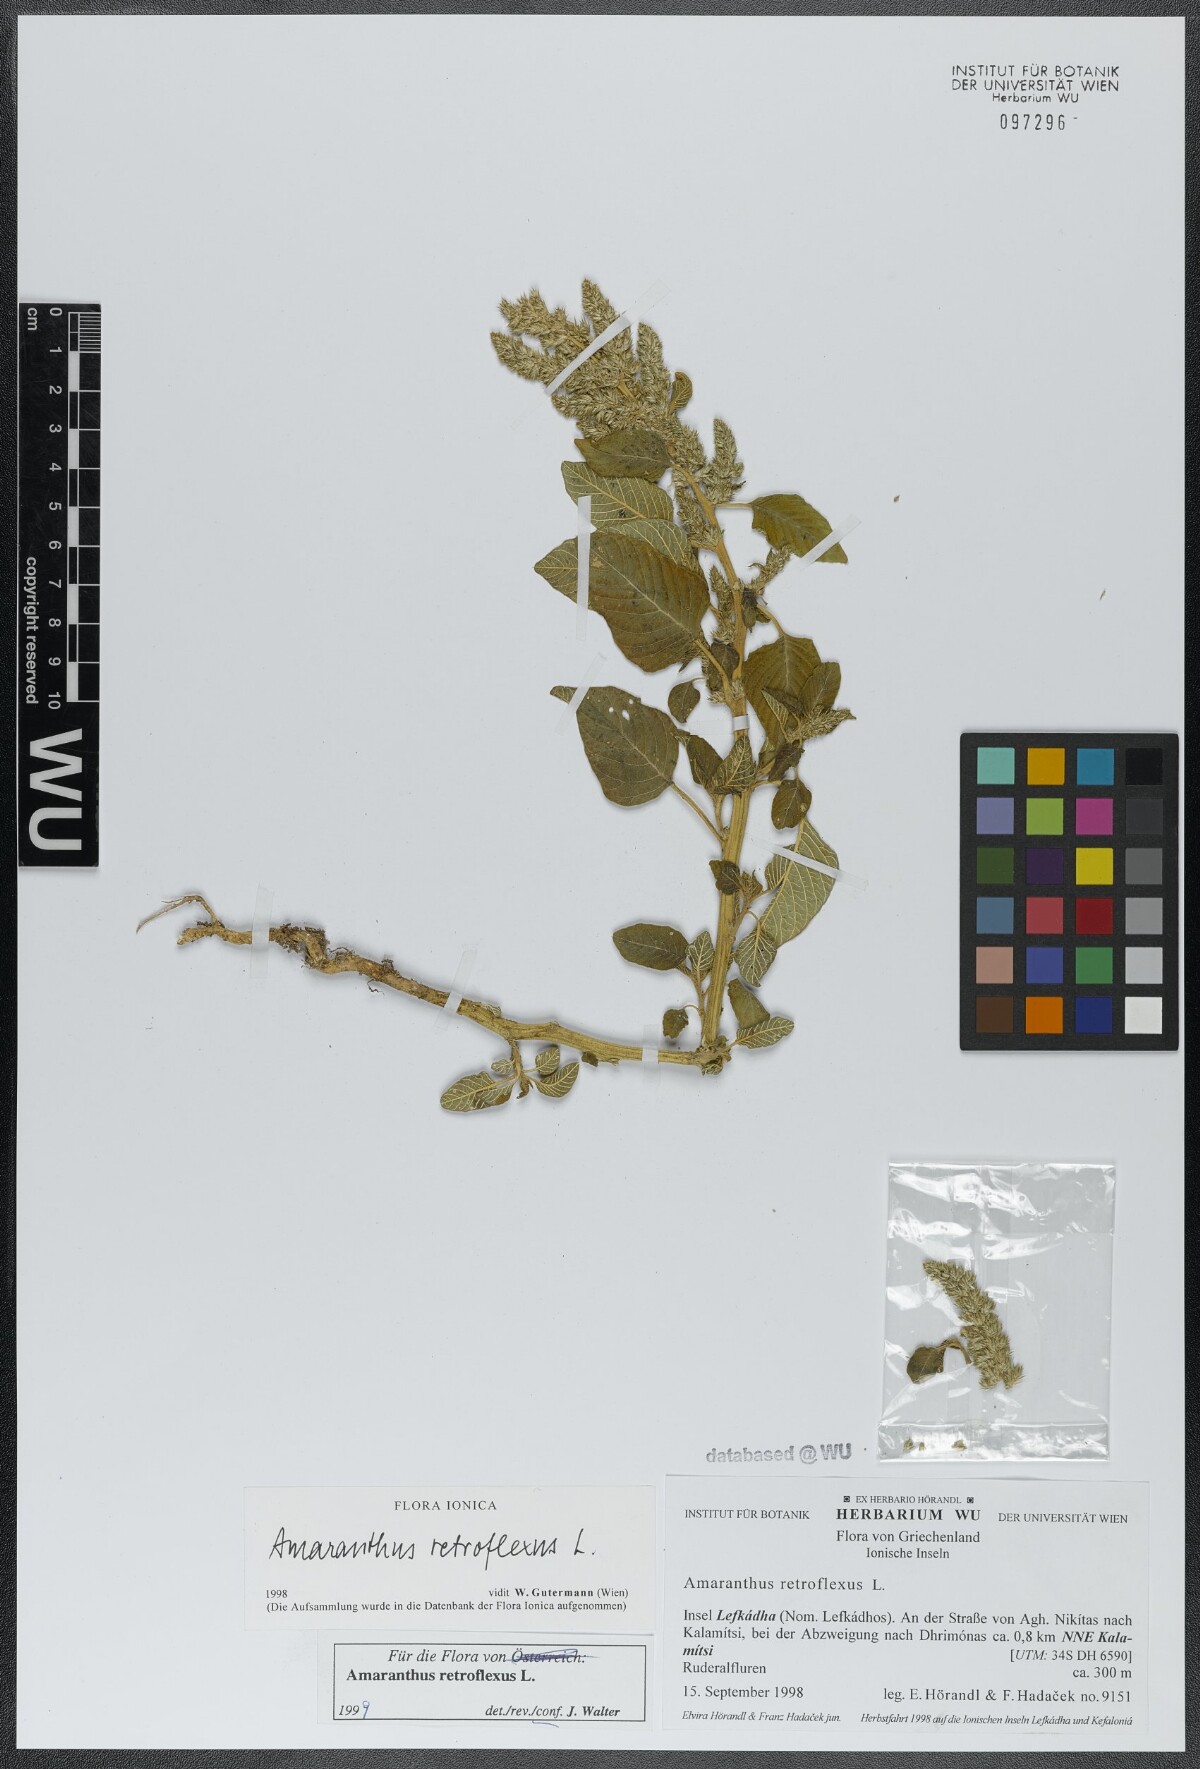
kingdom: Plantae
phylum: Tracheophyta
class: Magnoliopsida
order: Caryophyllales
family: Amaranthaceae
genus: Amaranthus
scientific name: Amaranthus retroflexus
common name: Redroot amaranth
